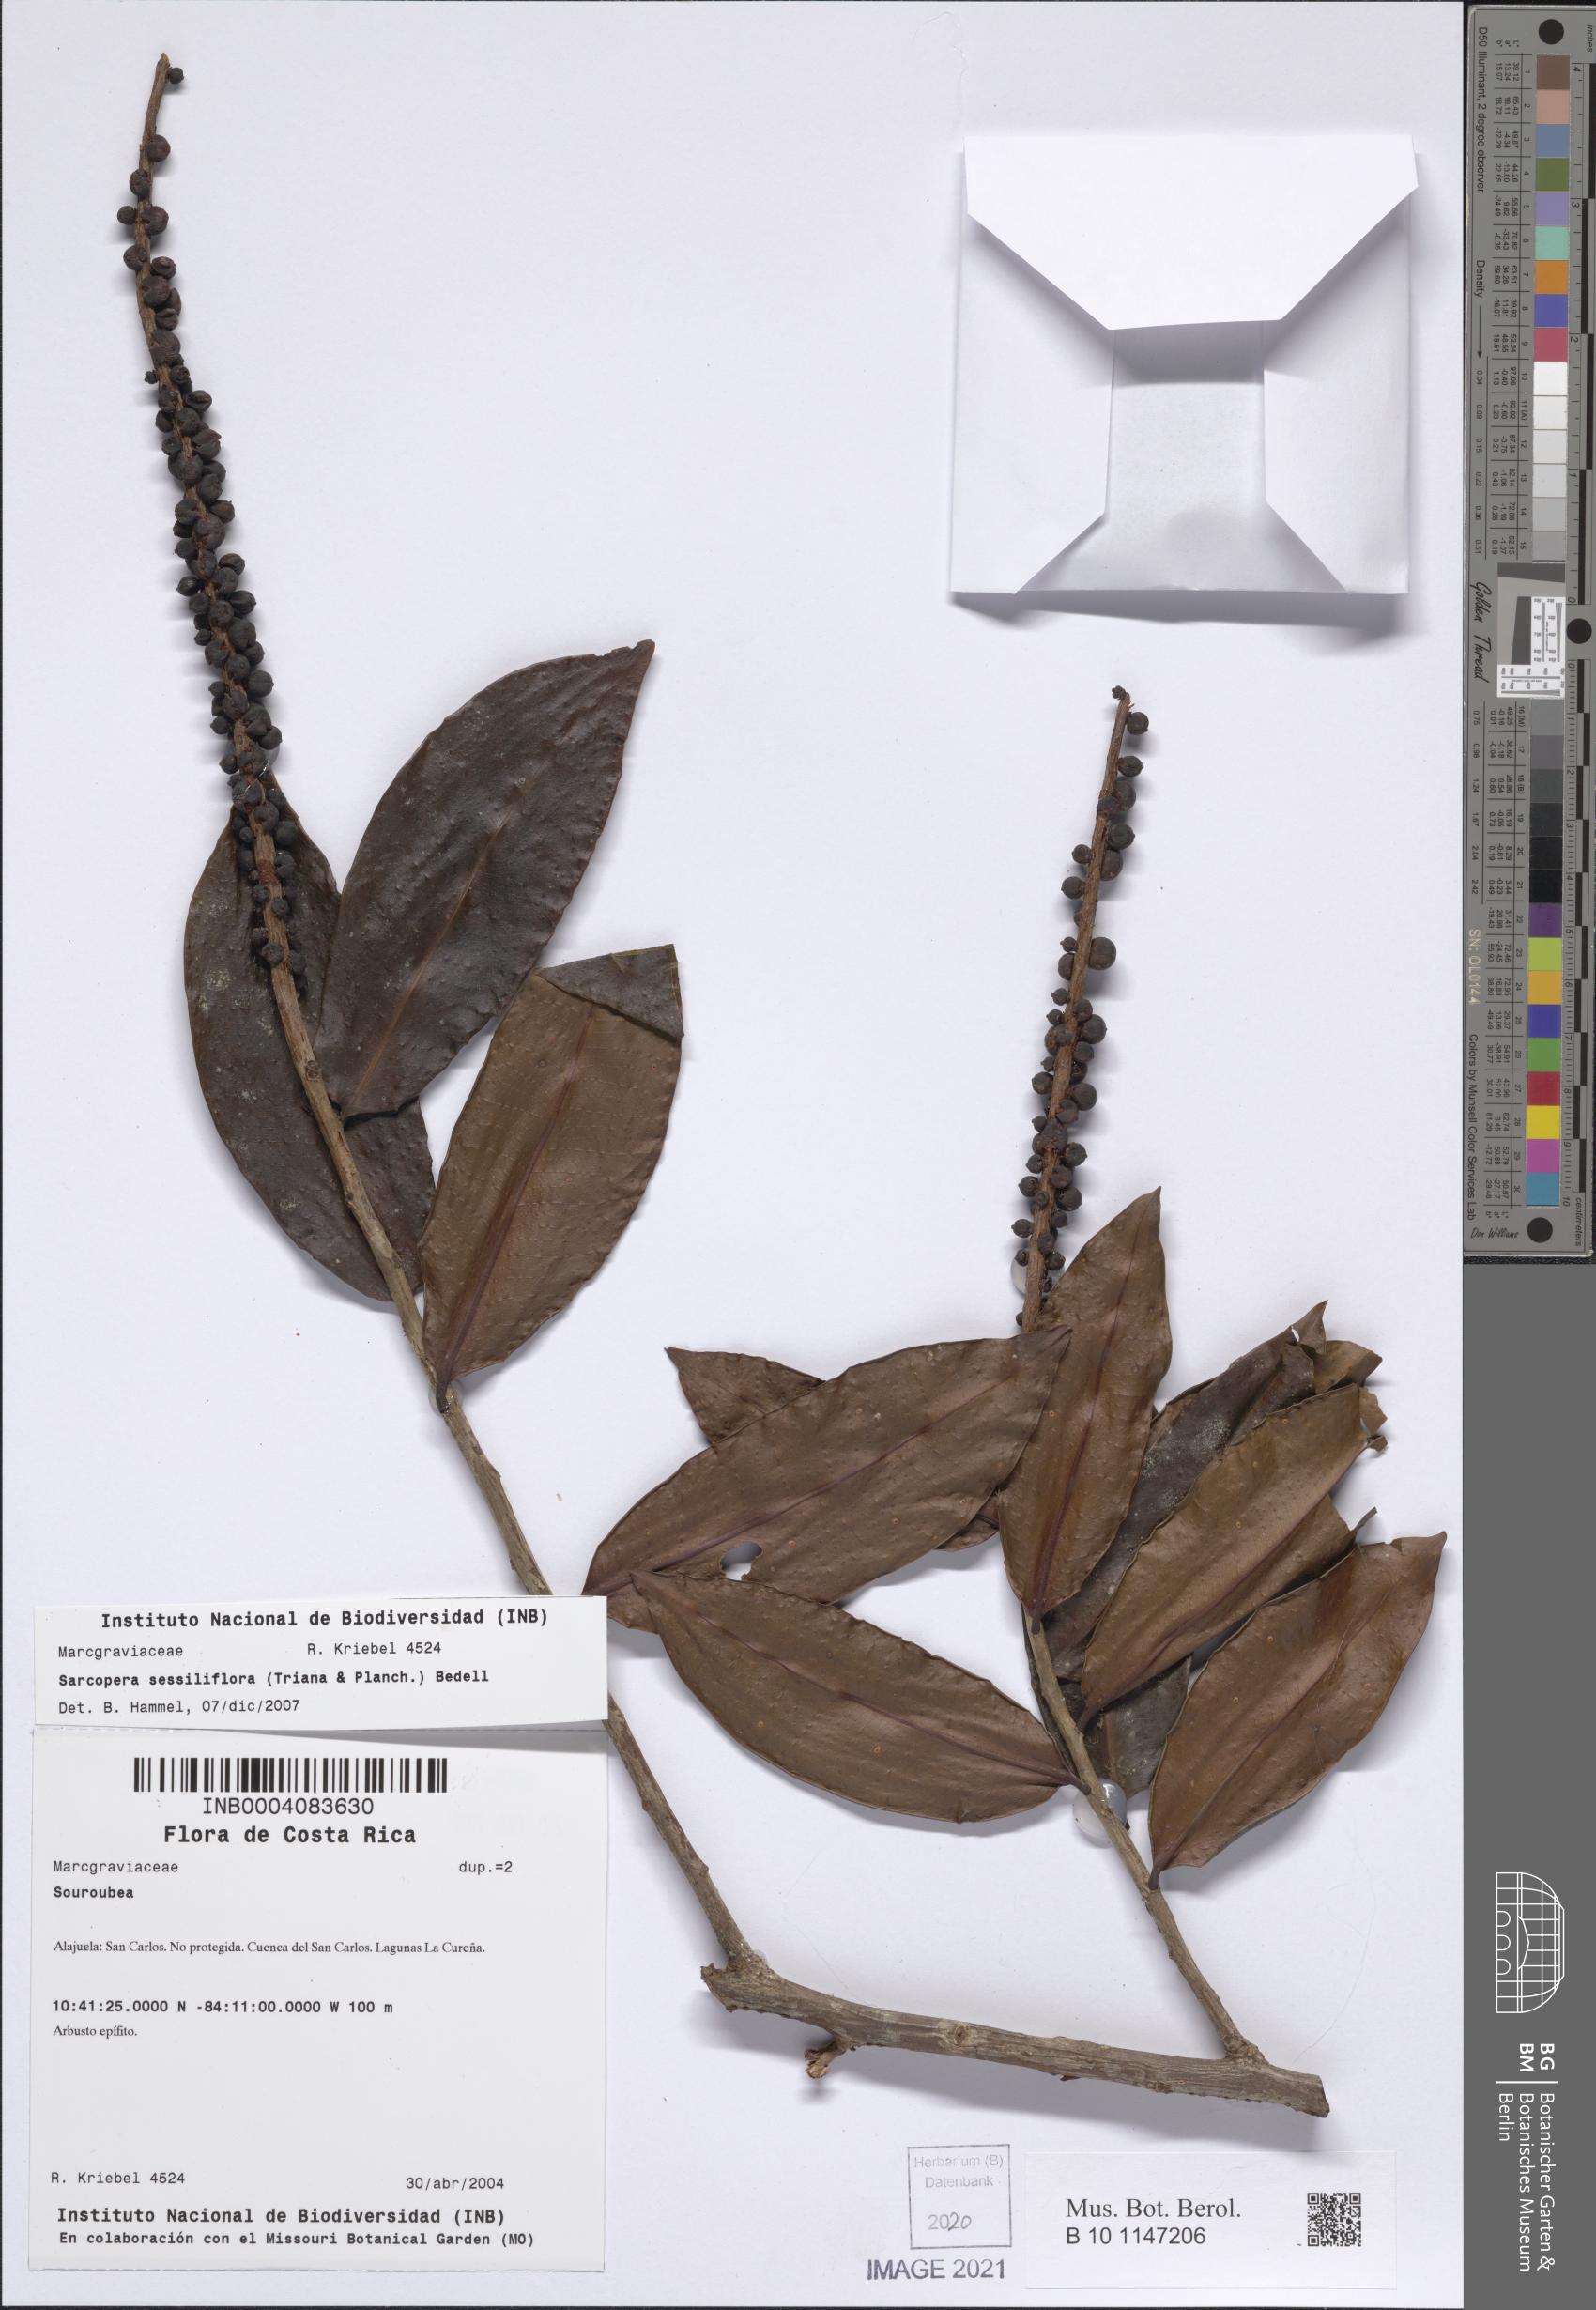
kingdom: Plantae
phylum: Tracheophyta
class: Magnoliopsida
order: Ericales
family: Marcgraviaceae
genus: Sarcopera
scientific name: Sarcopera sessiliflora
